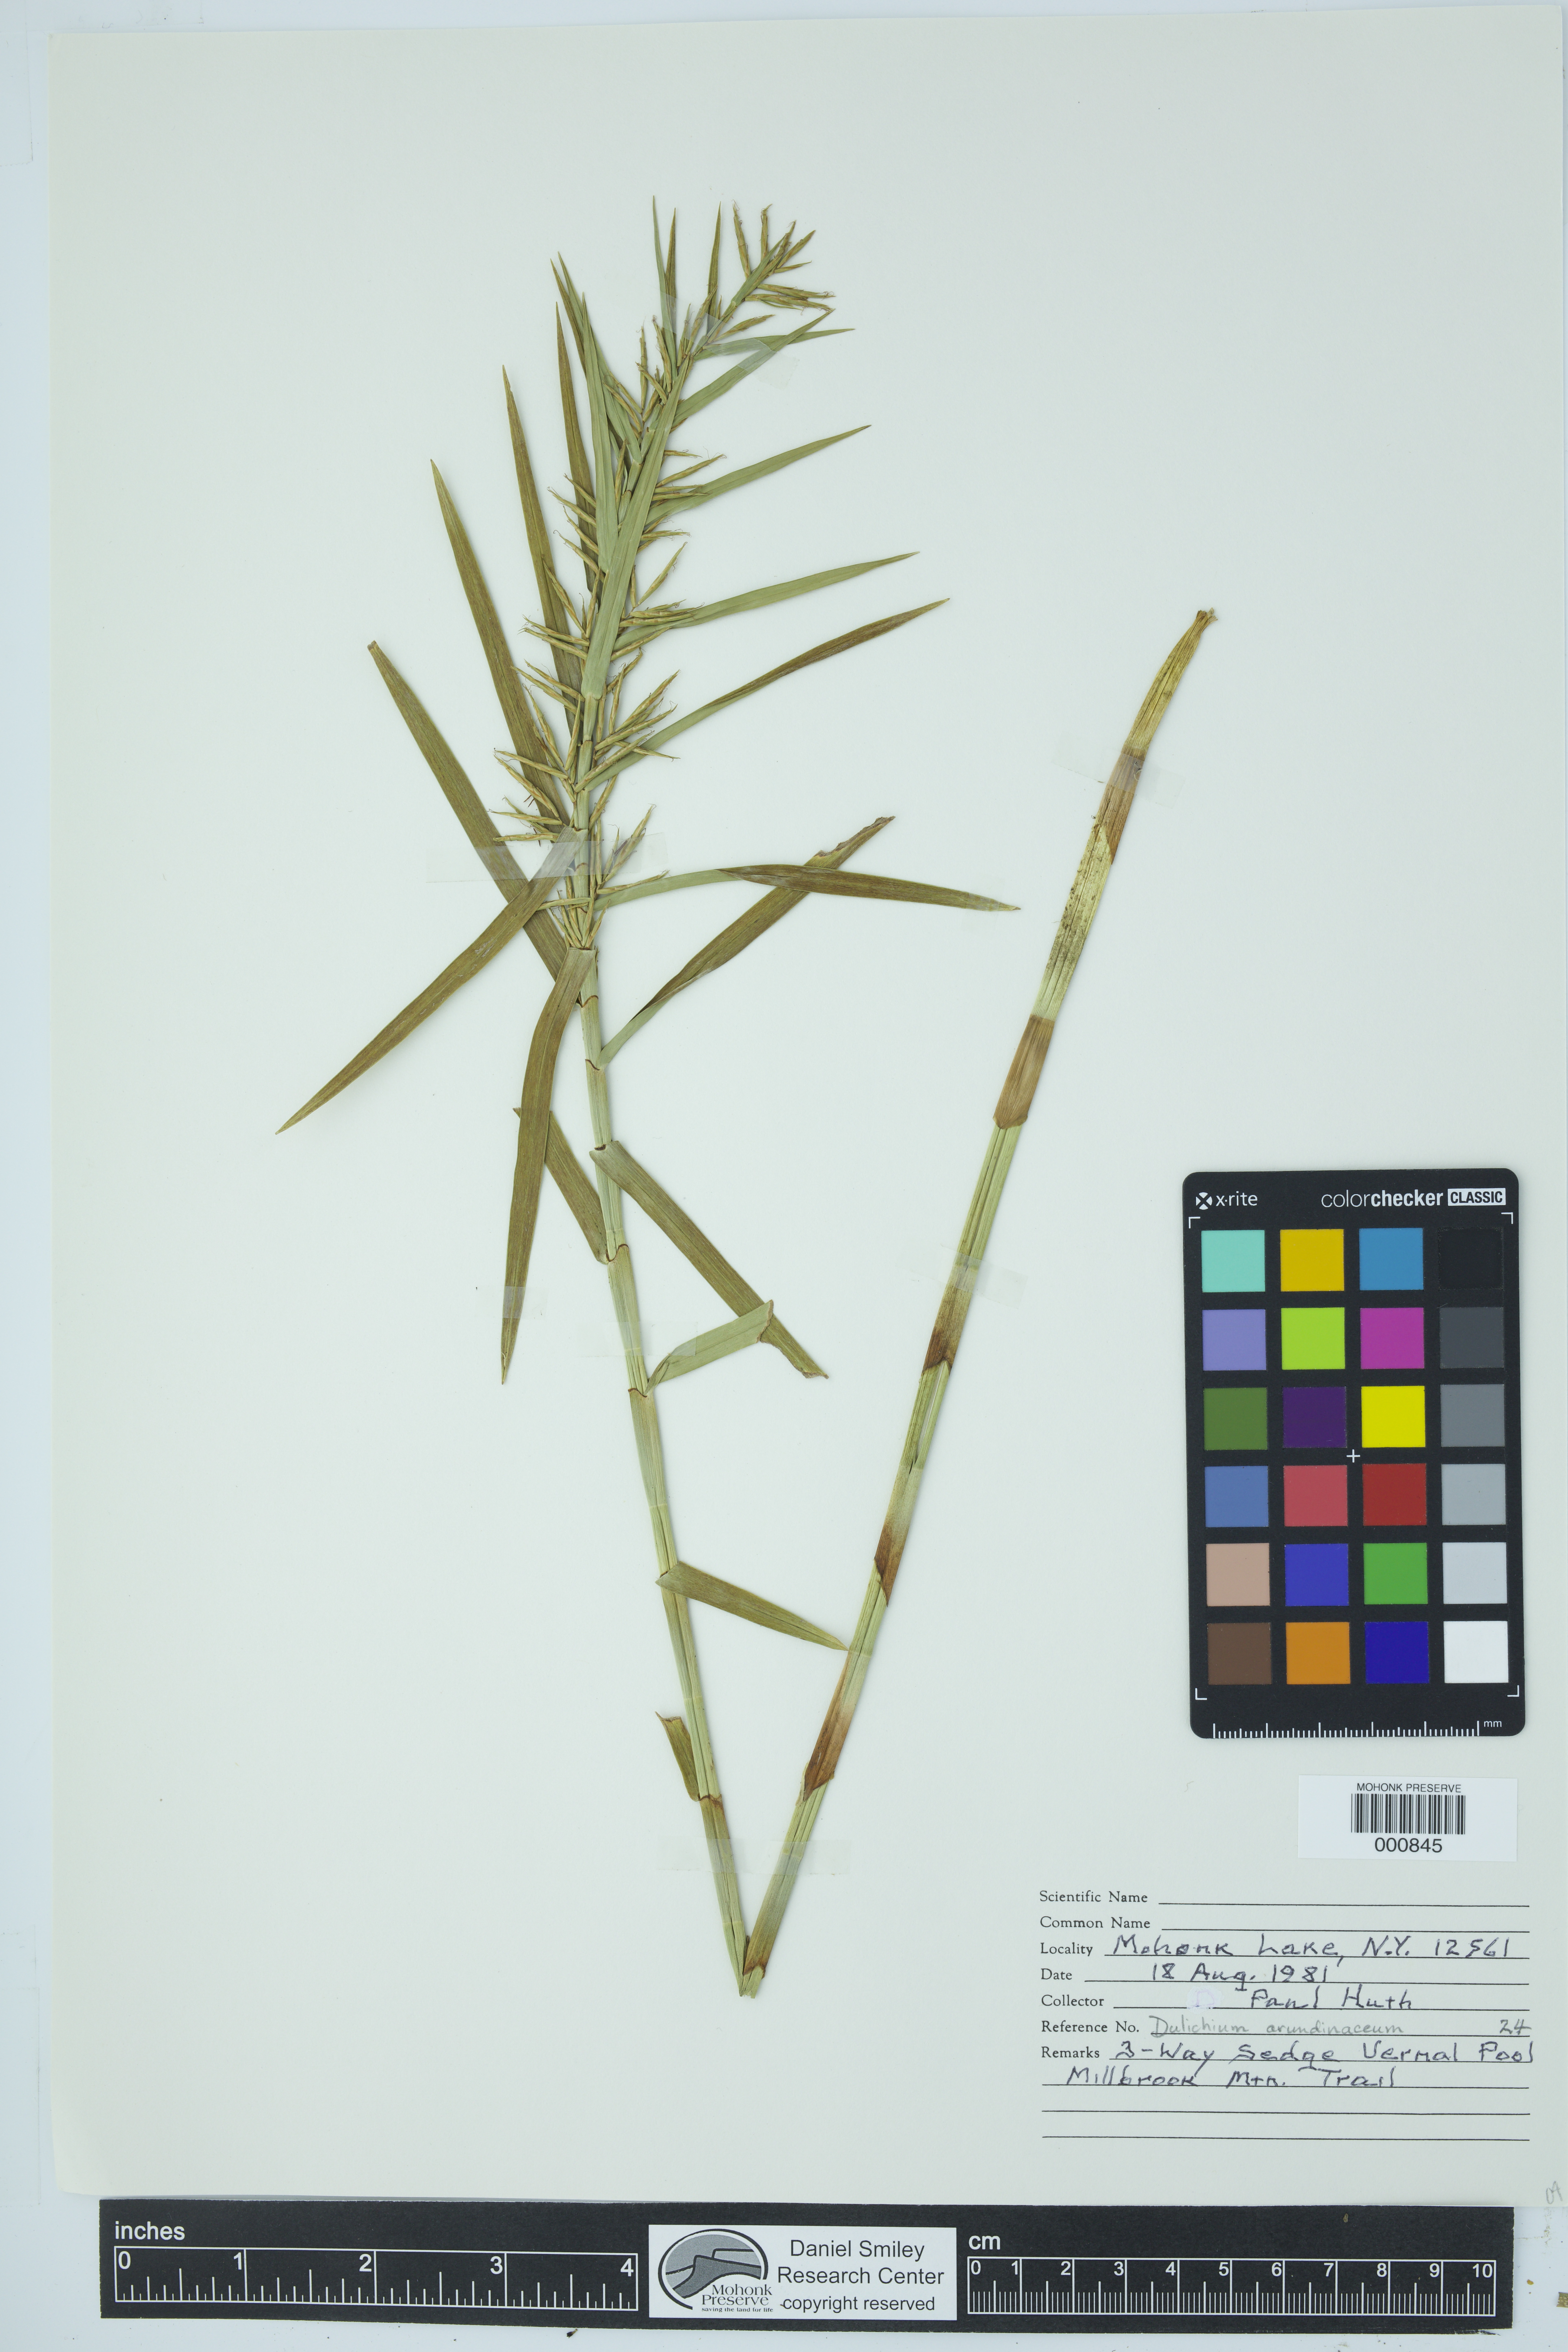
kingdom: Plantae
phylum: Tracheophyta
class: Liliopsida
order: Poales
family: Cyperaceae
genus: Dulichium
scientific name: Dulichium arundinaceum
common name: Three-way sedge
